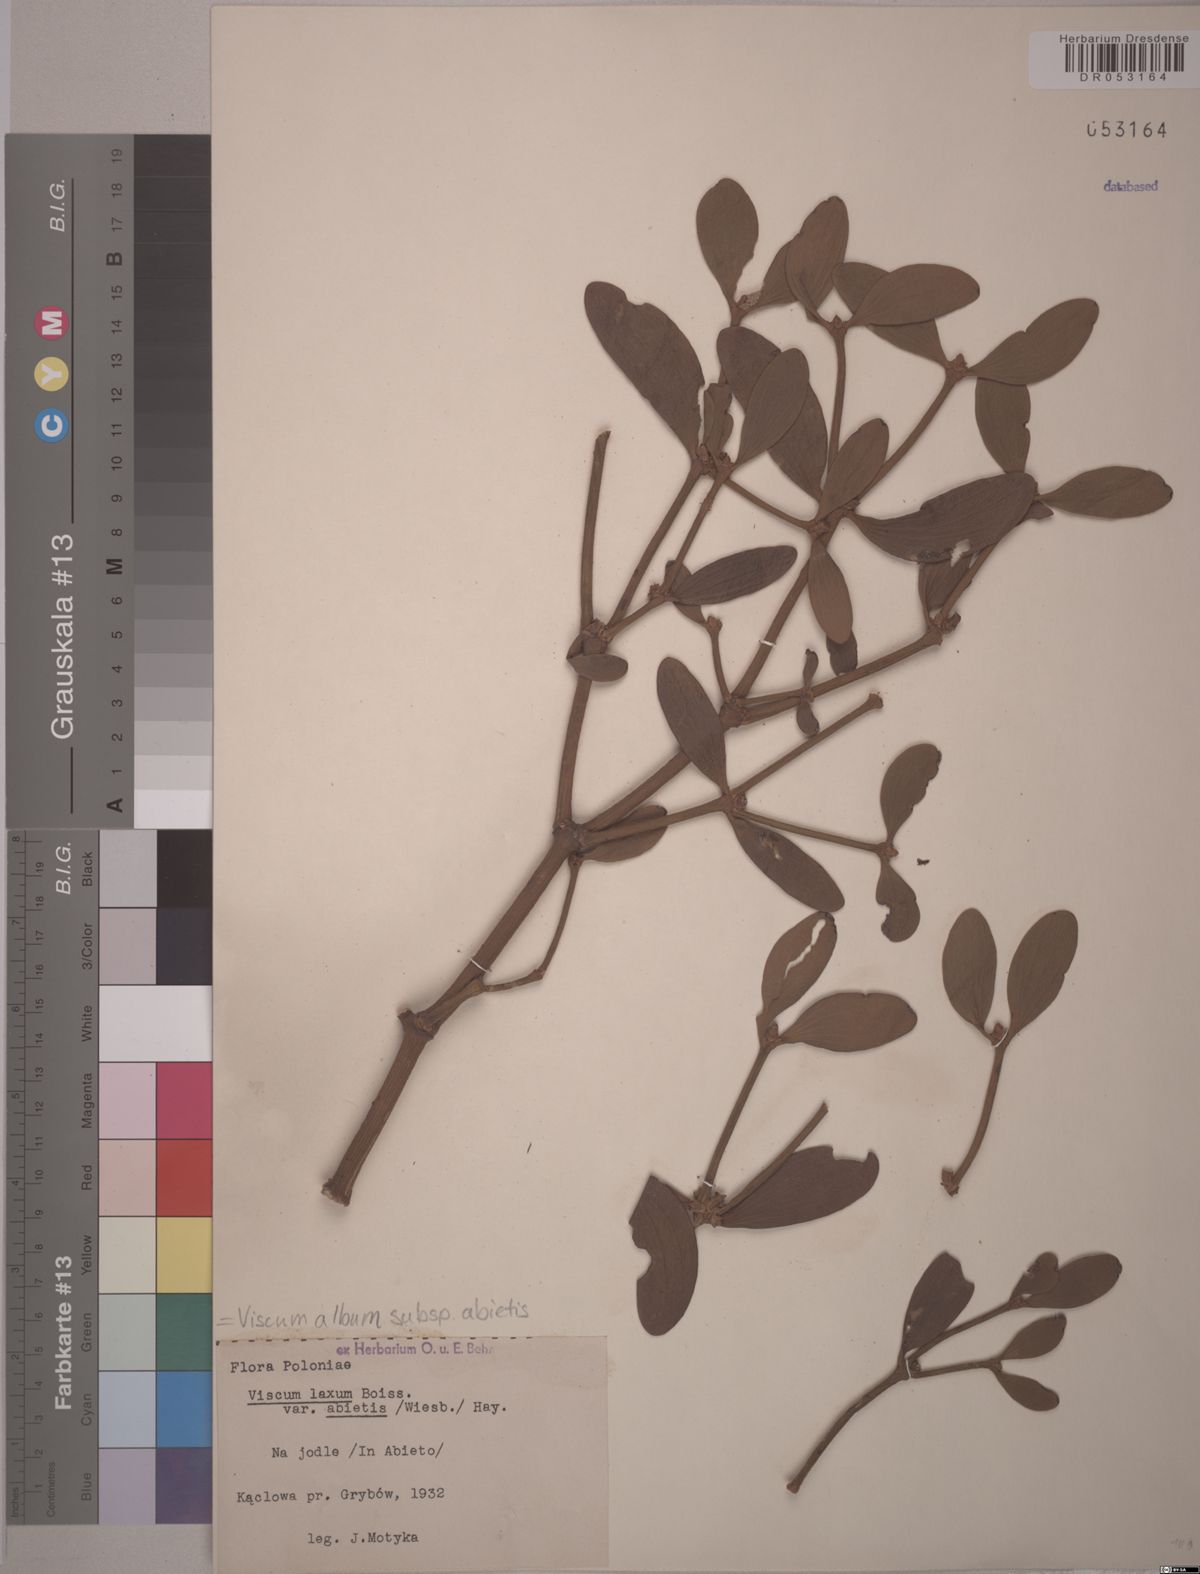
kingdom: Plantae
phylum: Tracheophyta
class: Magnoliopsida
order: Santalales
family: Viscaceae
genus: Viscum
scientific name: Viscum album
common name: Mistletoe
